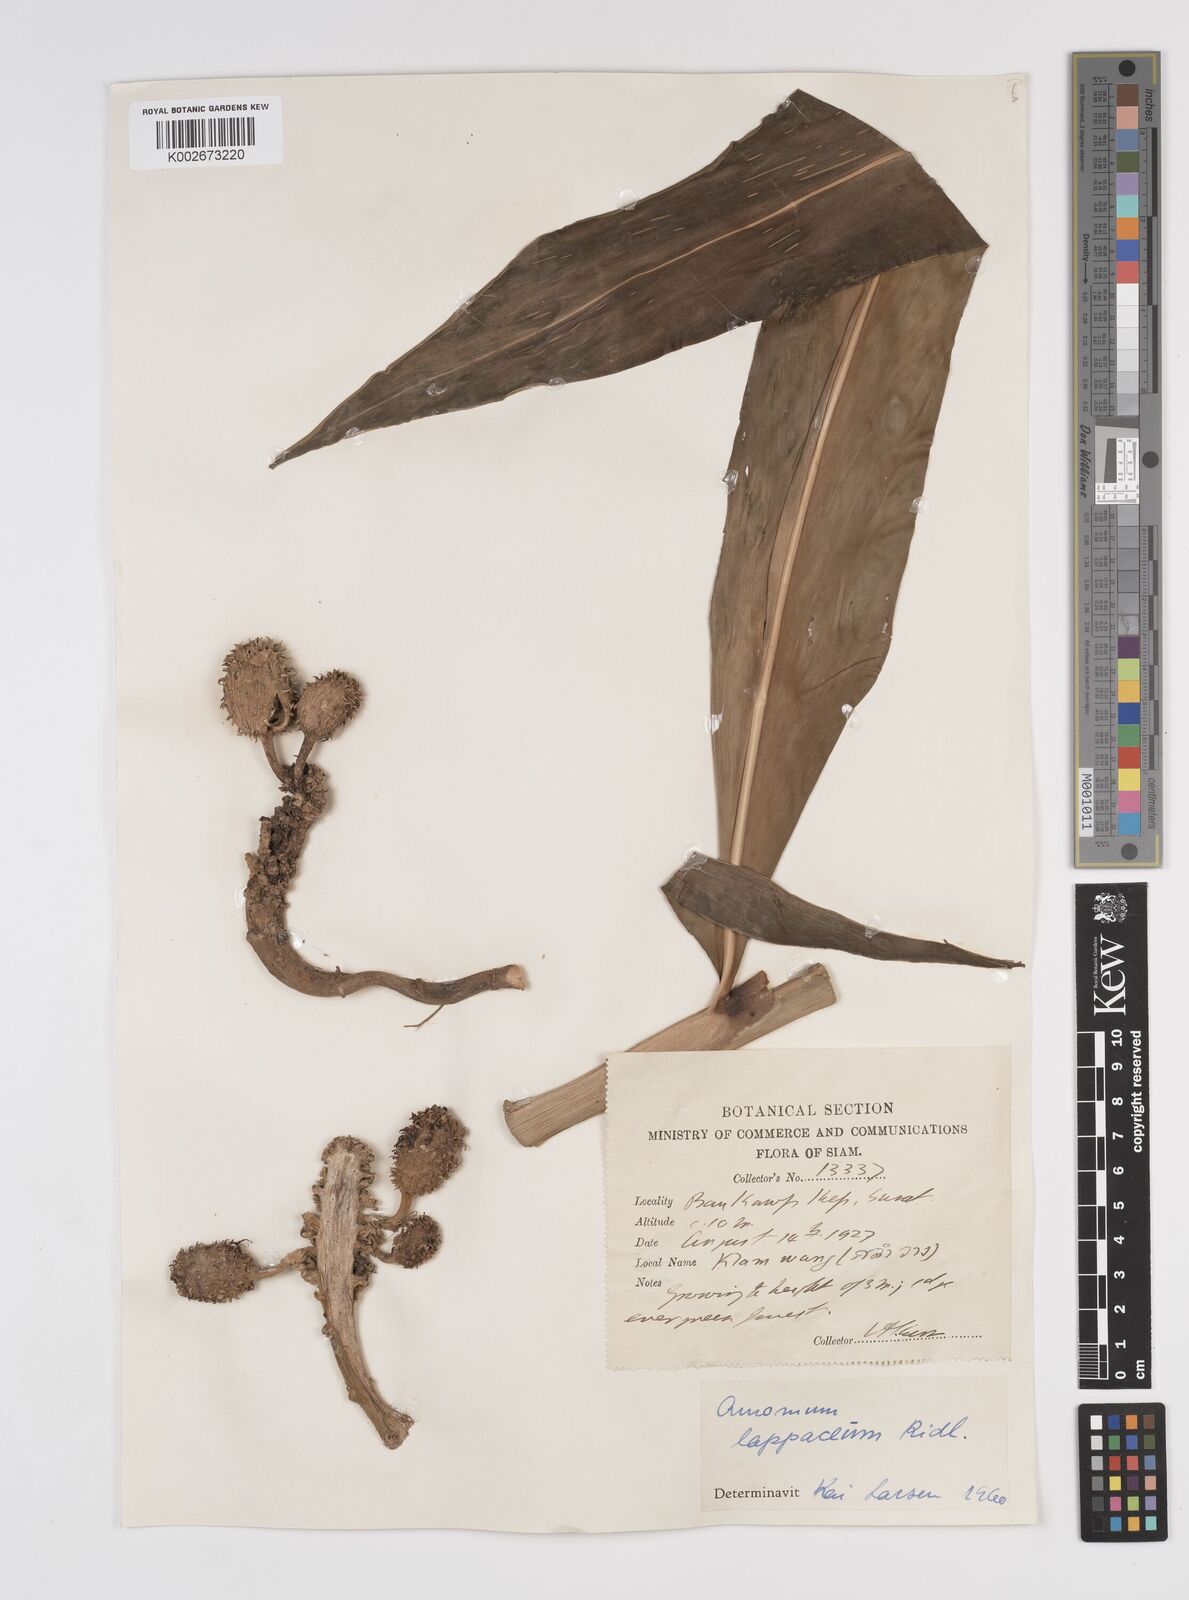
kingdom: Plantae
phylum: Tracheophyta
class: Liliopsida
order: Zingiberales
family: Zingiberaceae
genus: Meistera
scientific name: Meistera lappacea
